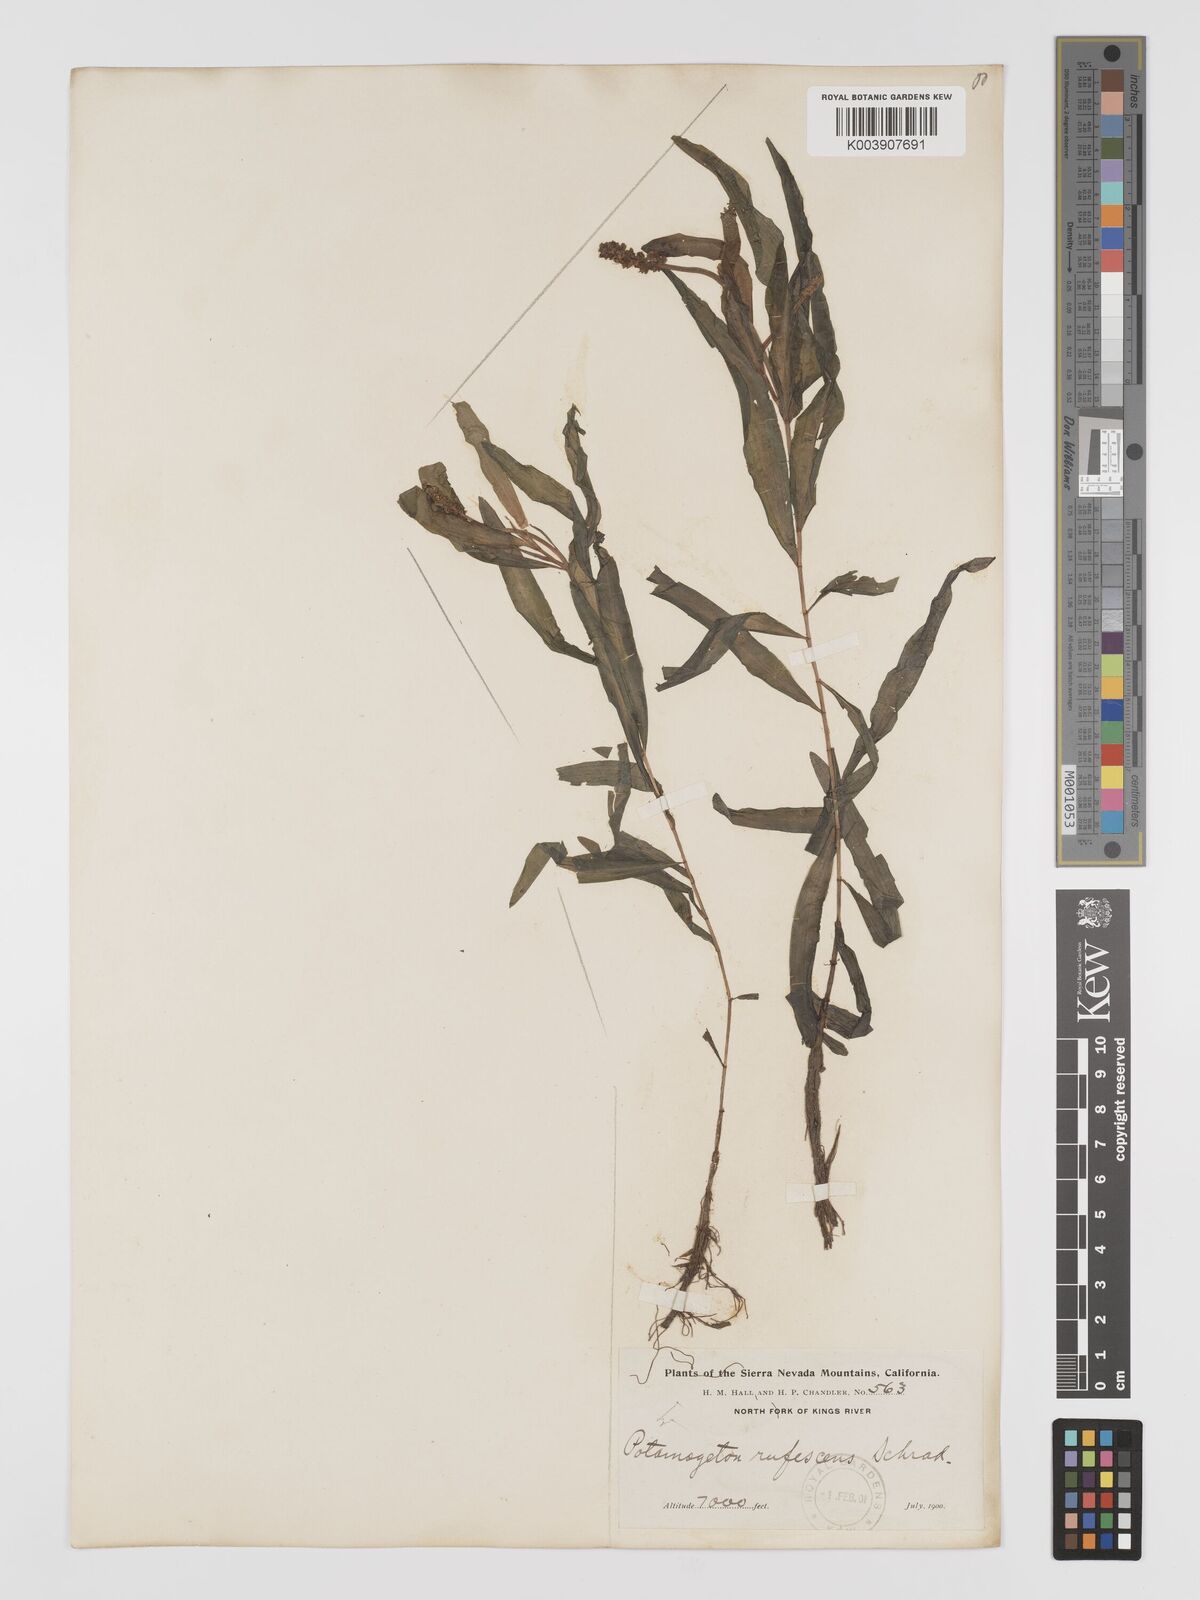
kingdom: Plantae
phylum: Tracheophyta
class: Liliopsida
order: Alismatales
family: Potamogetonaceae
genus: Potamogeton
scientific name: Potamogeton alpinus
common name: Red pondweed
